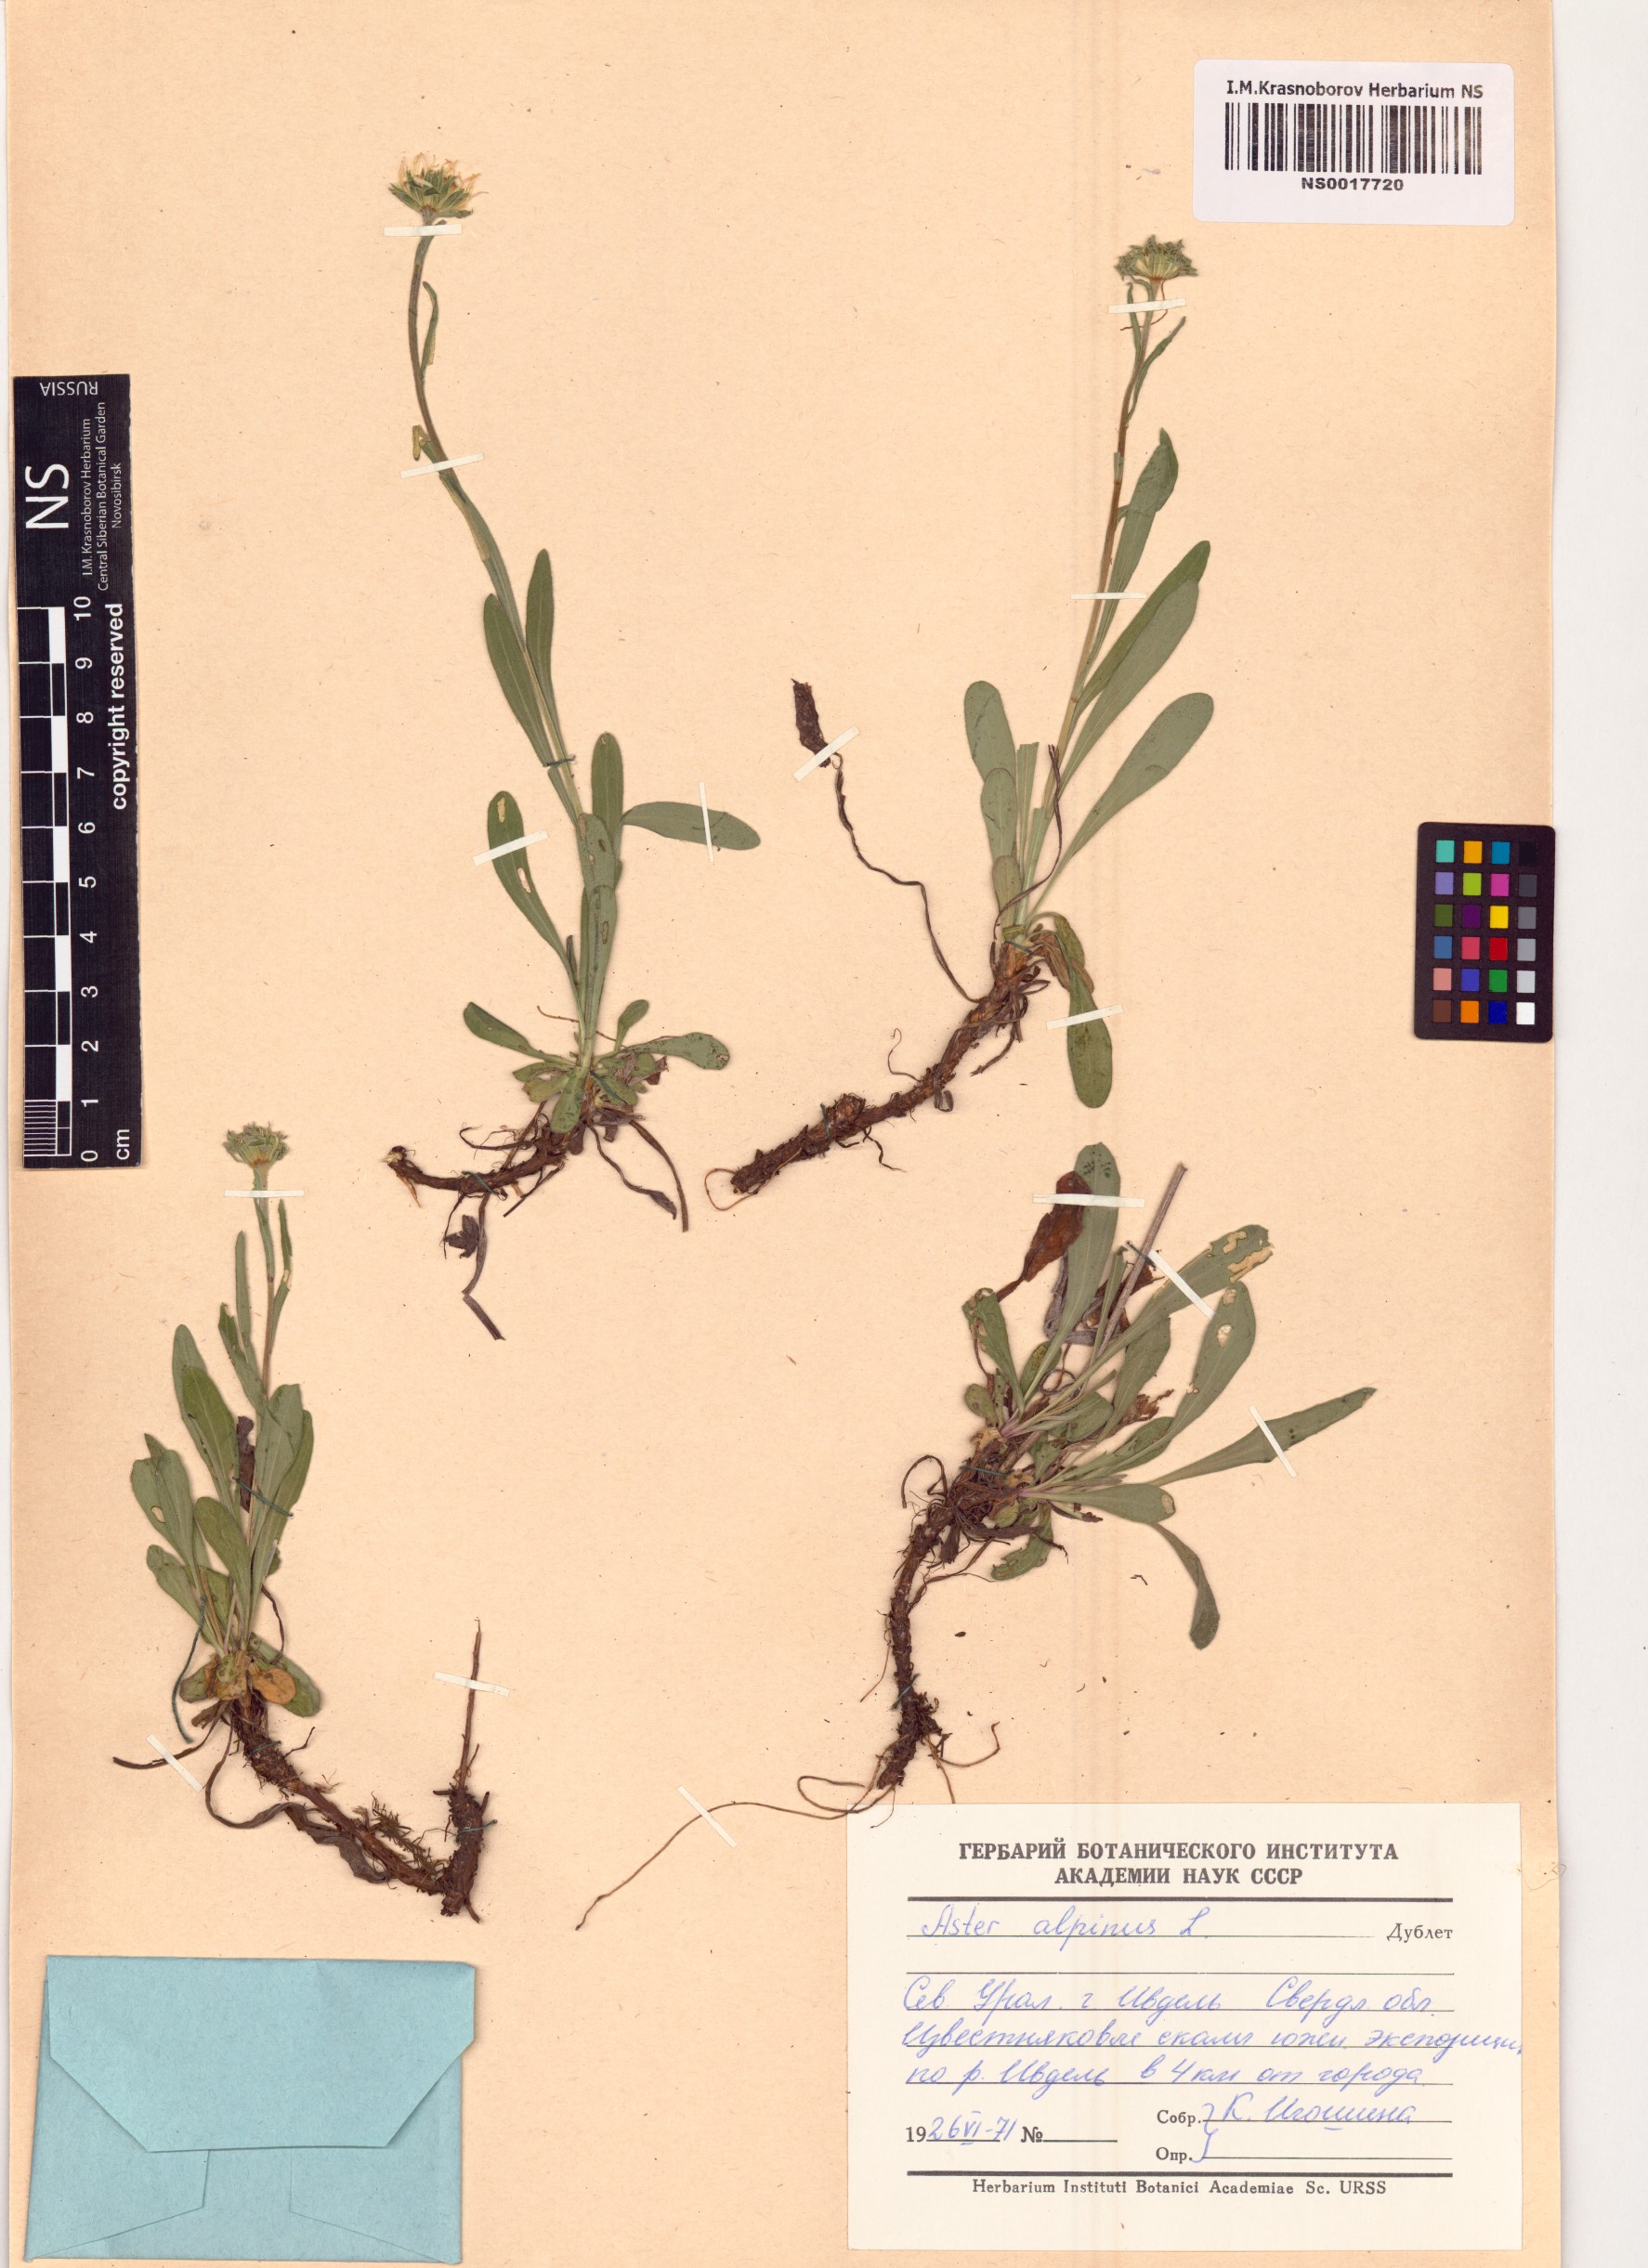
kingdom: Plantae
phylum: Tracheophyta
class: Magnoliopsida
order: Asterales
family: Asteraceae
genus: Aster
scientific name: Aster alpinus
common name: Alpine aster
